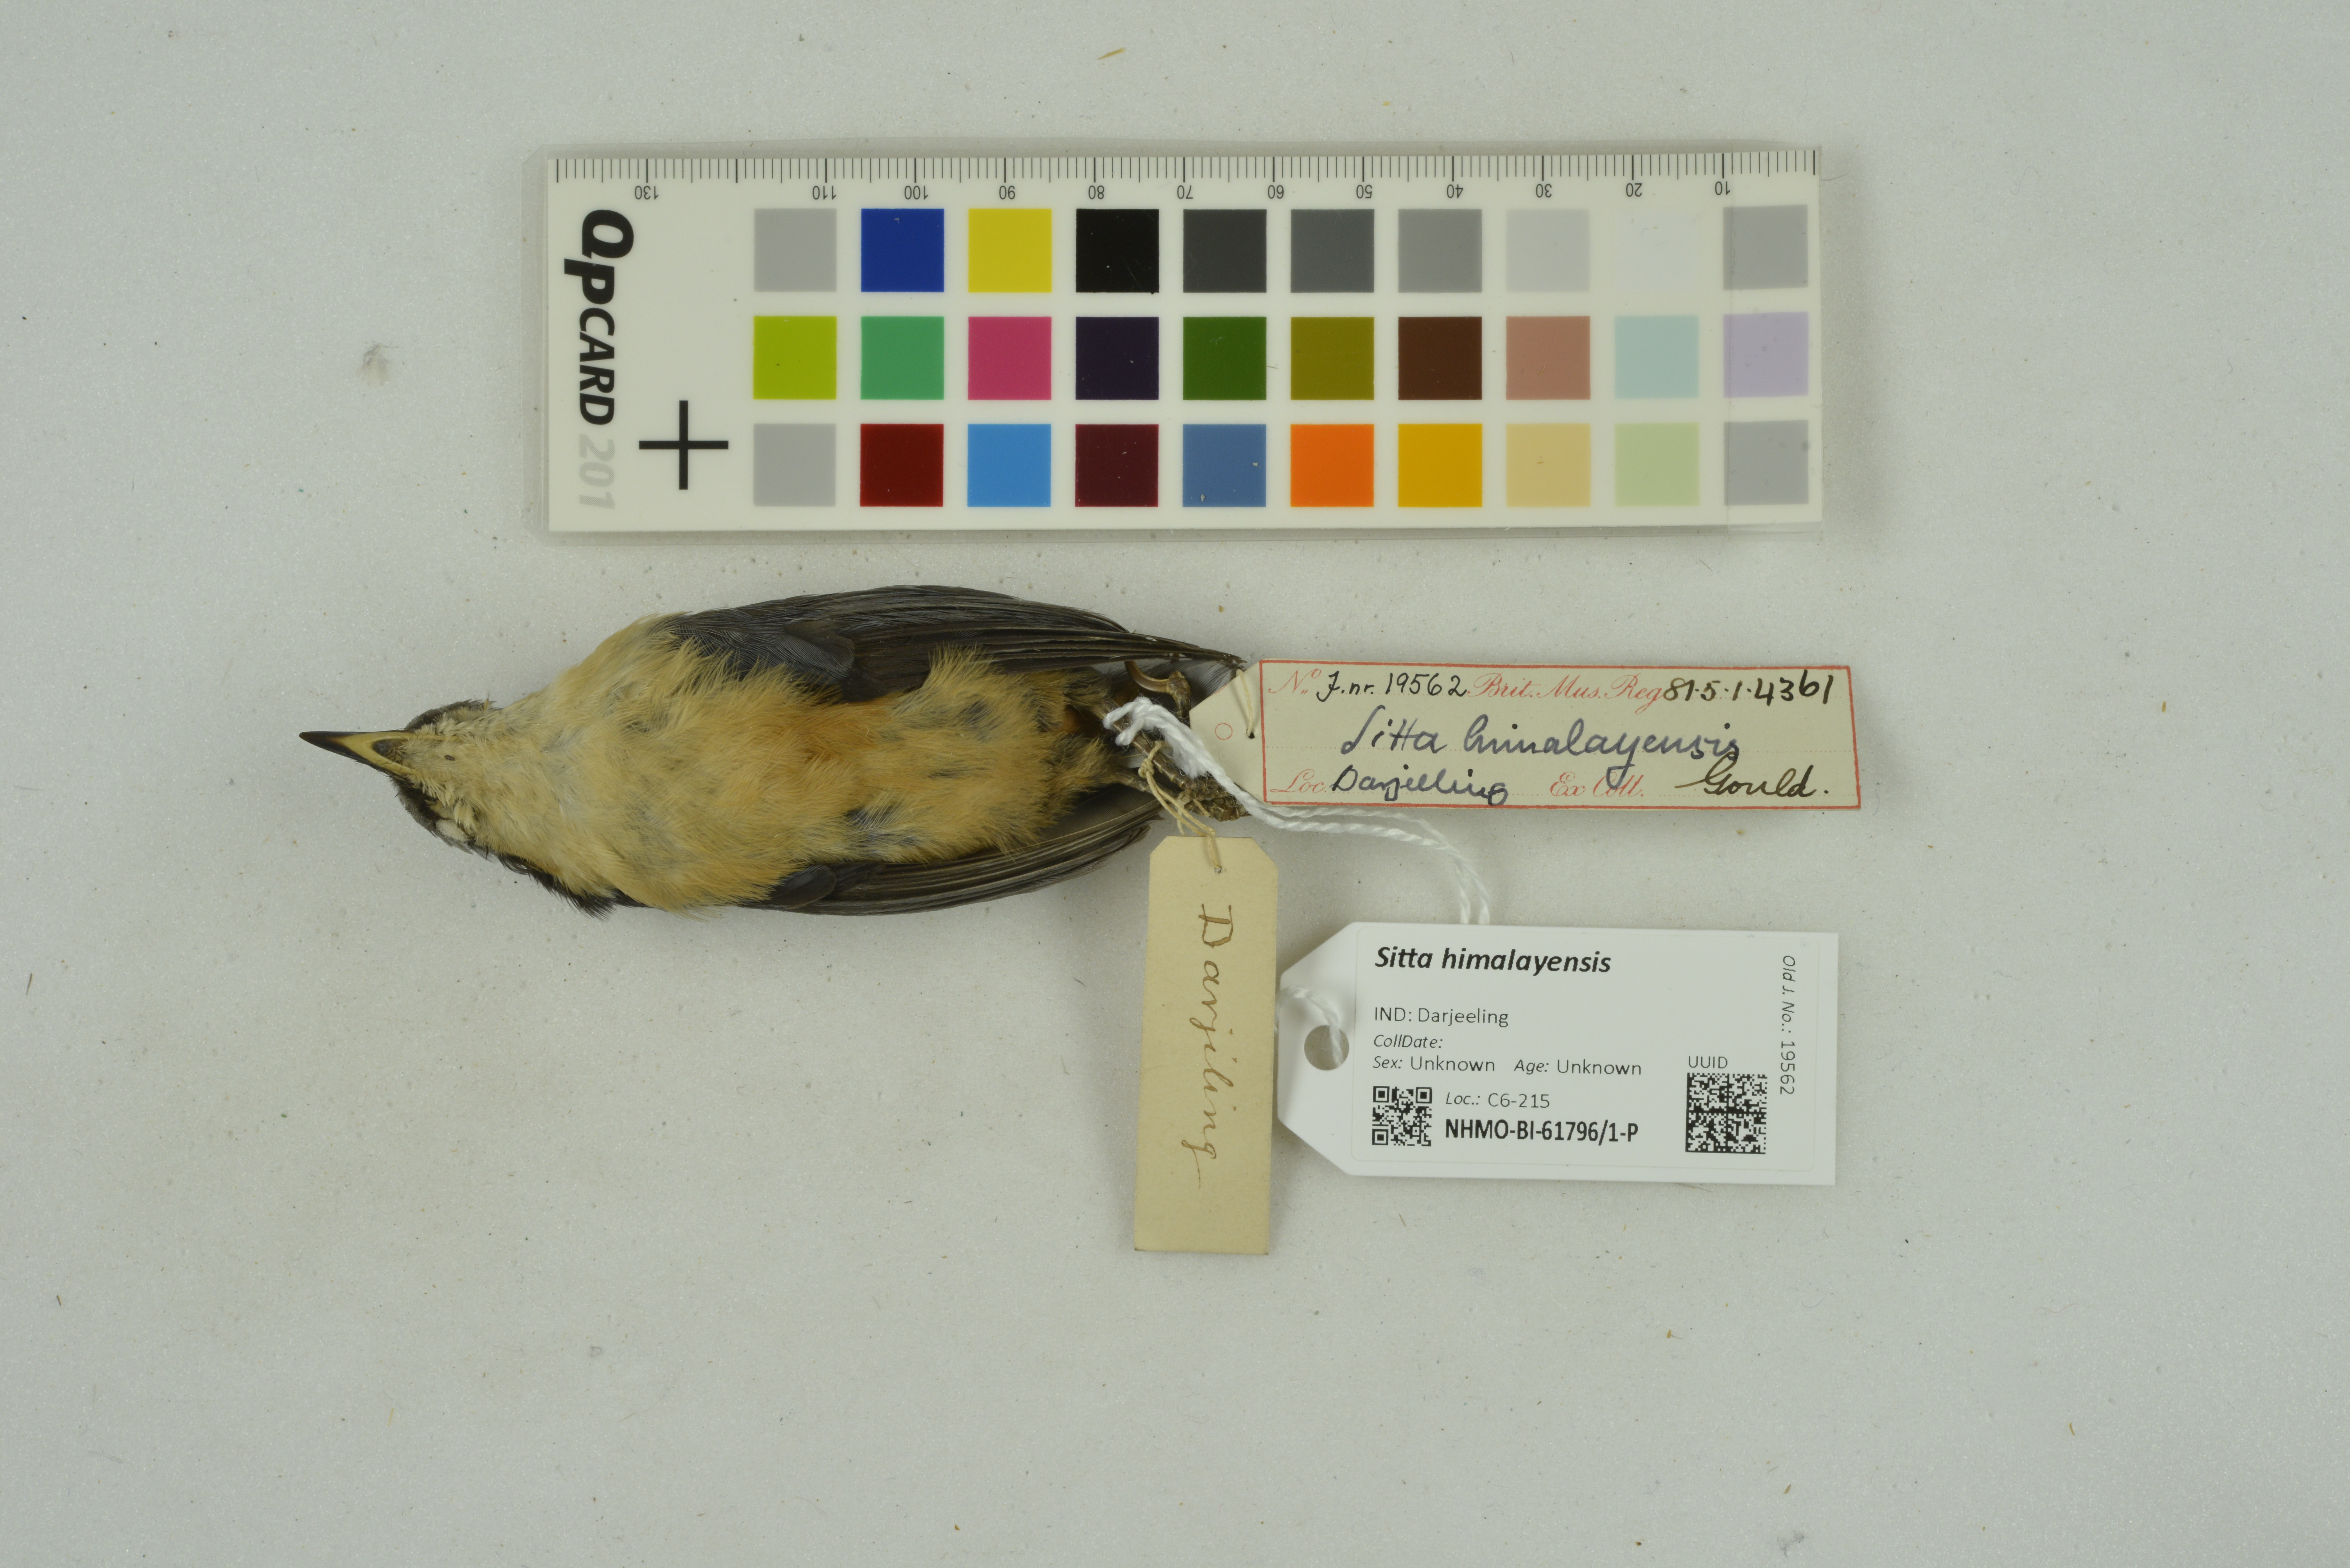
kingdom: Animalia
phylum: Chordata
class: Aves
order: Passeriformes
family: Sittidae
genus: Sitta
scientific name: Sitta himalayensis
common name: White-tailed nuthatch
